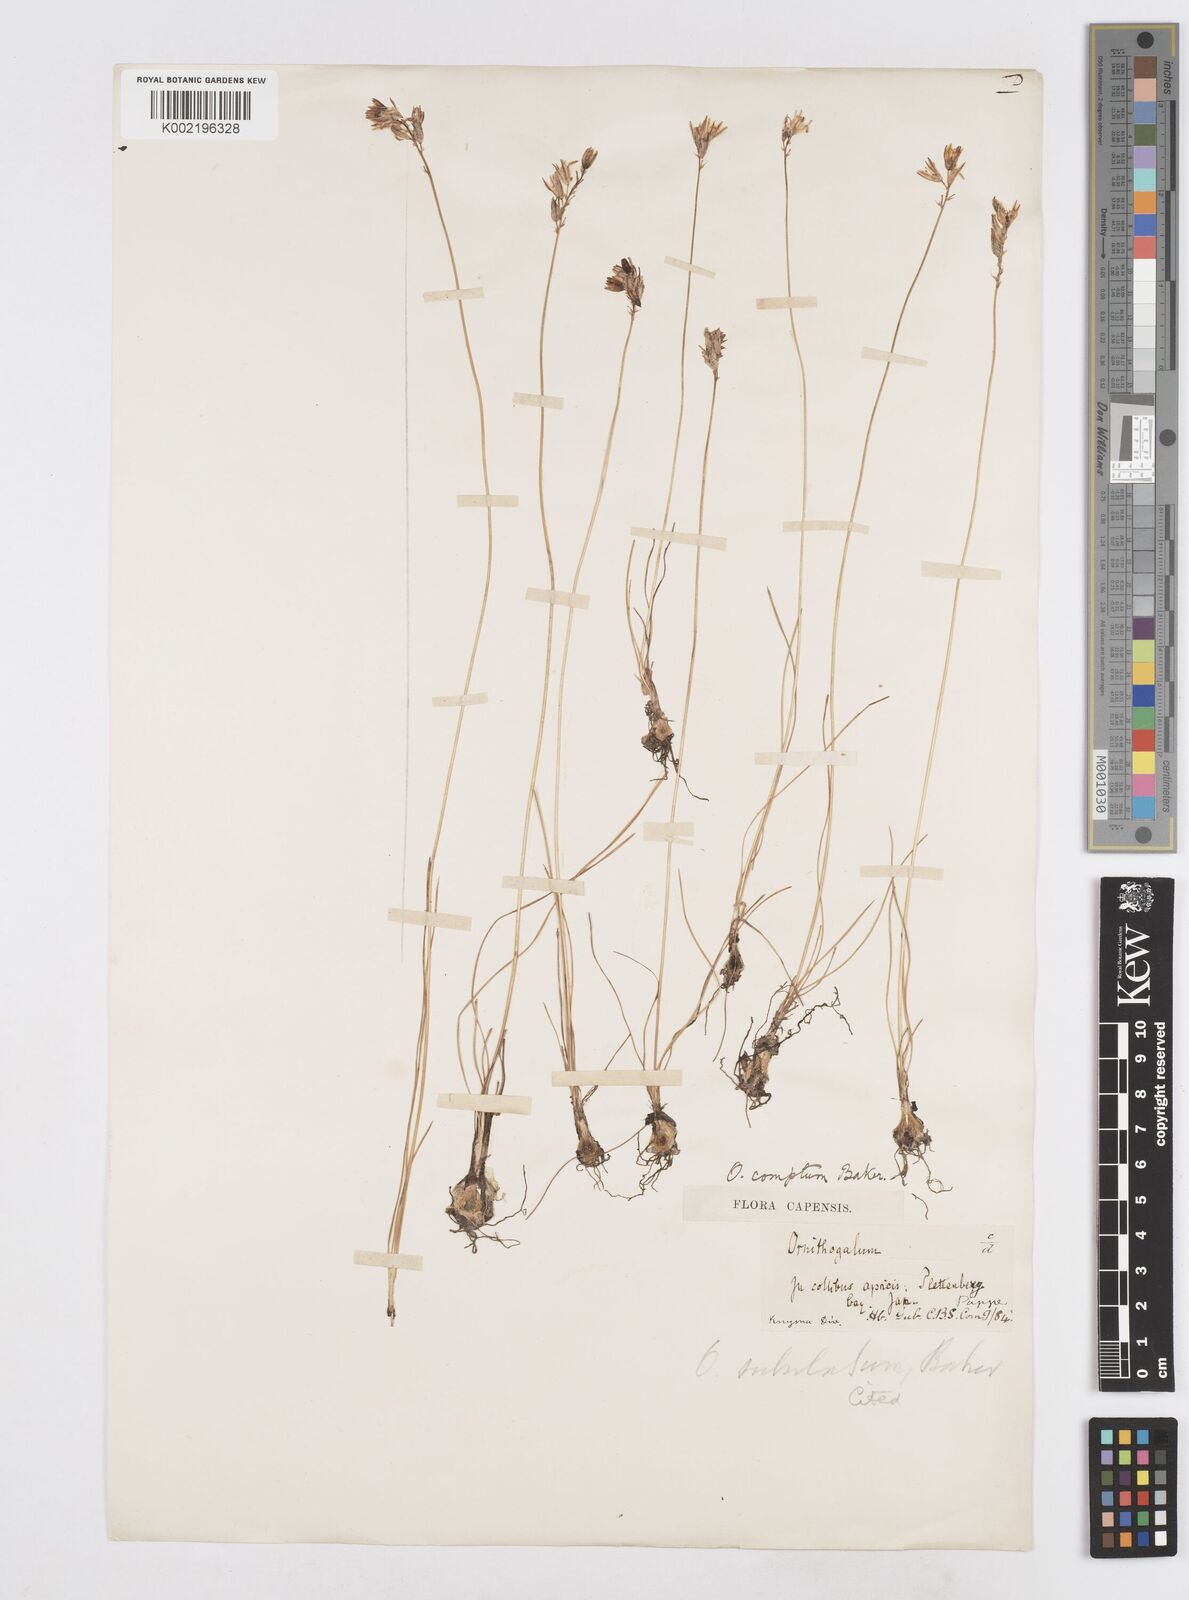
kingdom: Plantae
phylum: Tracheophyta
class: Liliopsida
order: Asparagales
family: Asparagaceae
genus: Ornithogalum
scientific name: Ornithogalum juncifolium
